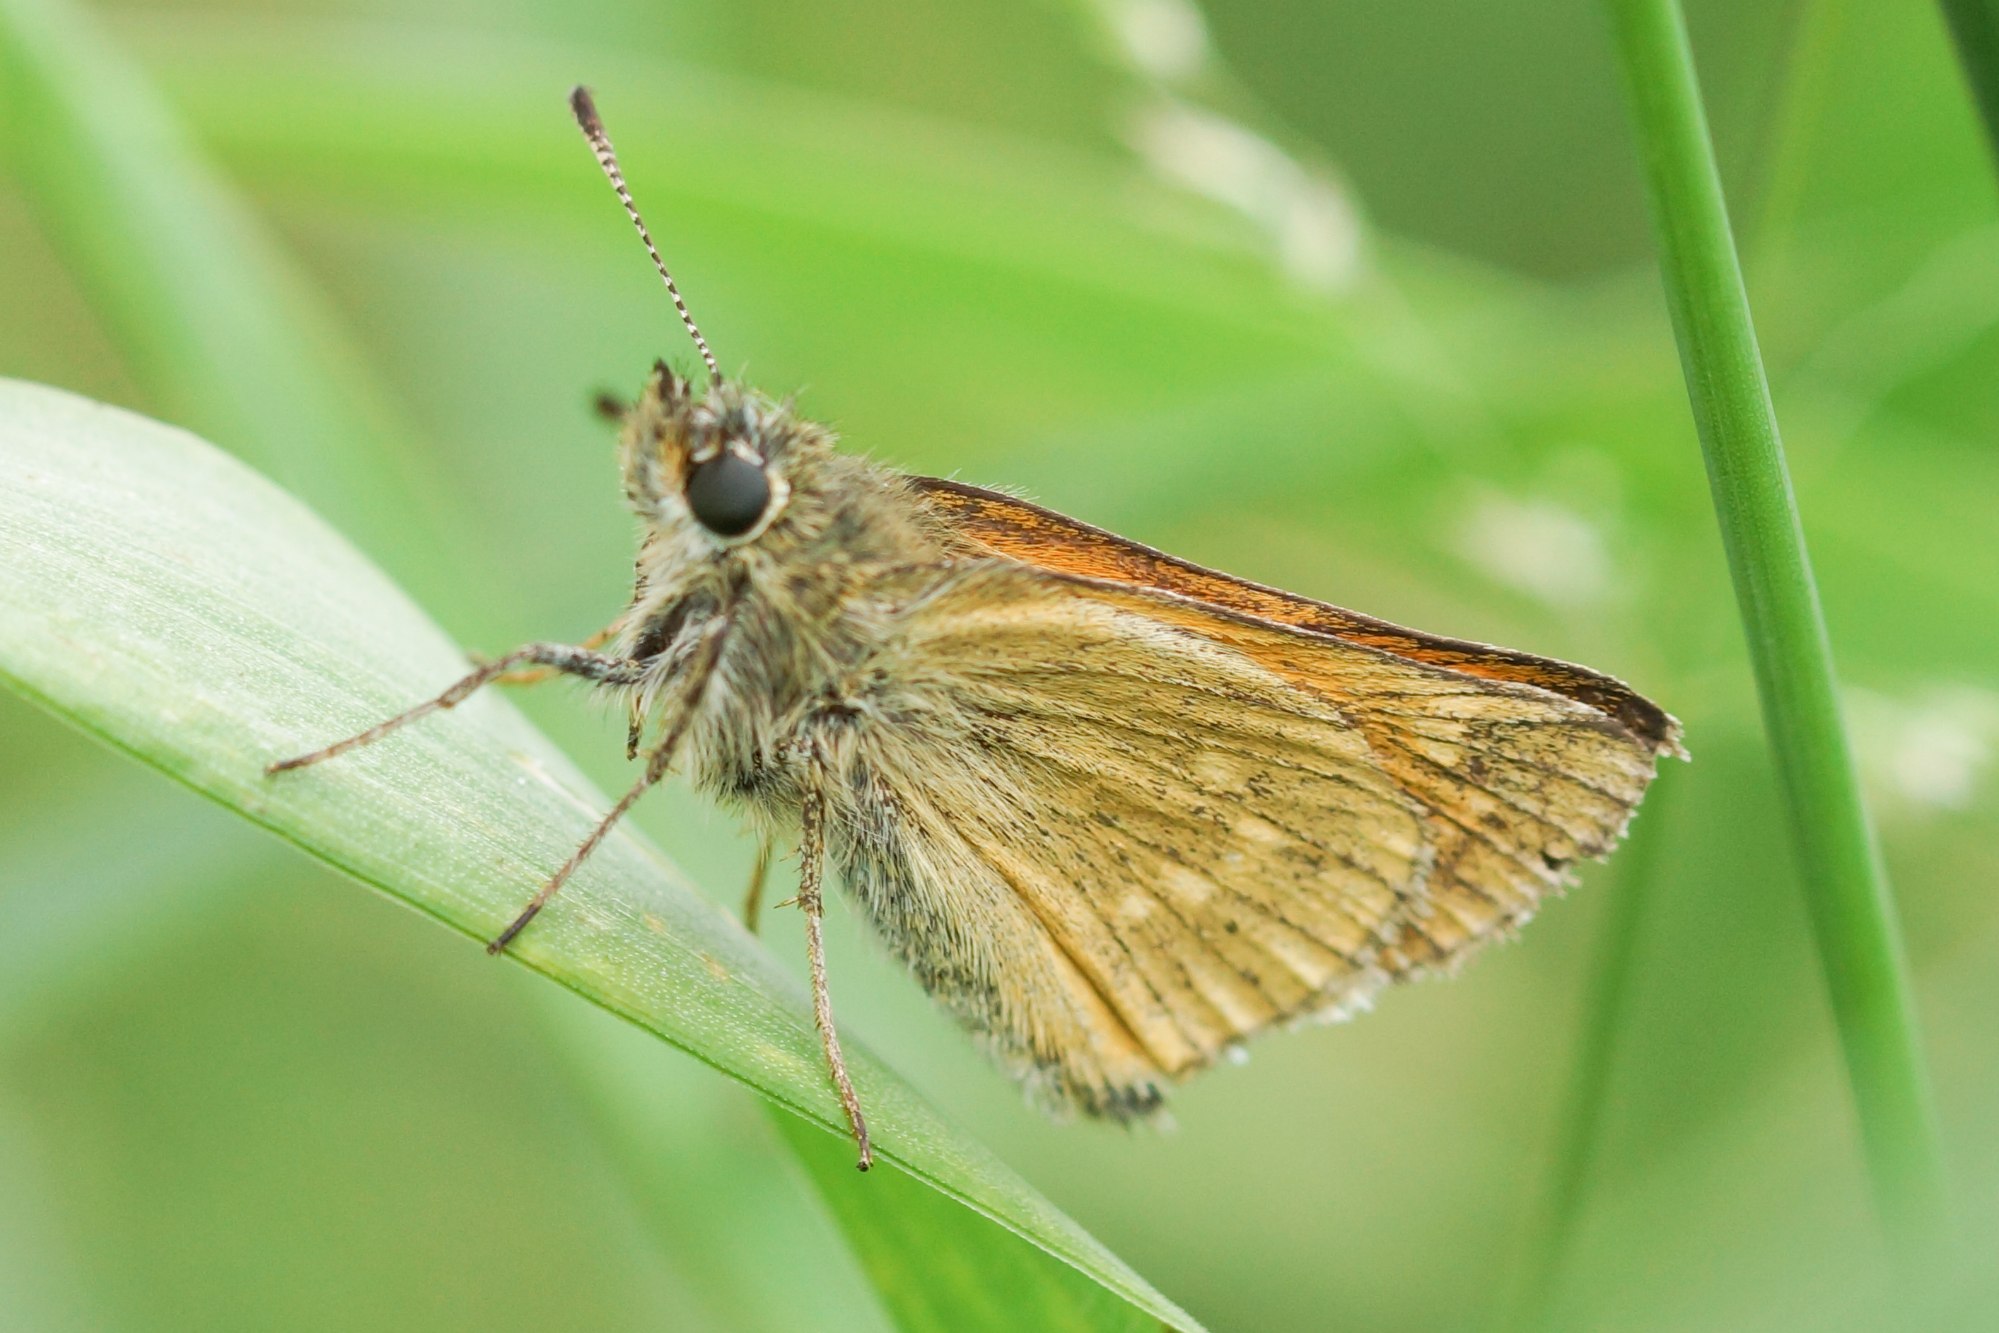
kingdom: Animalia
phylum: Arthropoda
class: Insecta
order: Lepidoptera
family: Hesperiidae
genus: Ochlodes
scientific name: Ochlodes venata
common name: Stor bredpande
